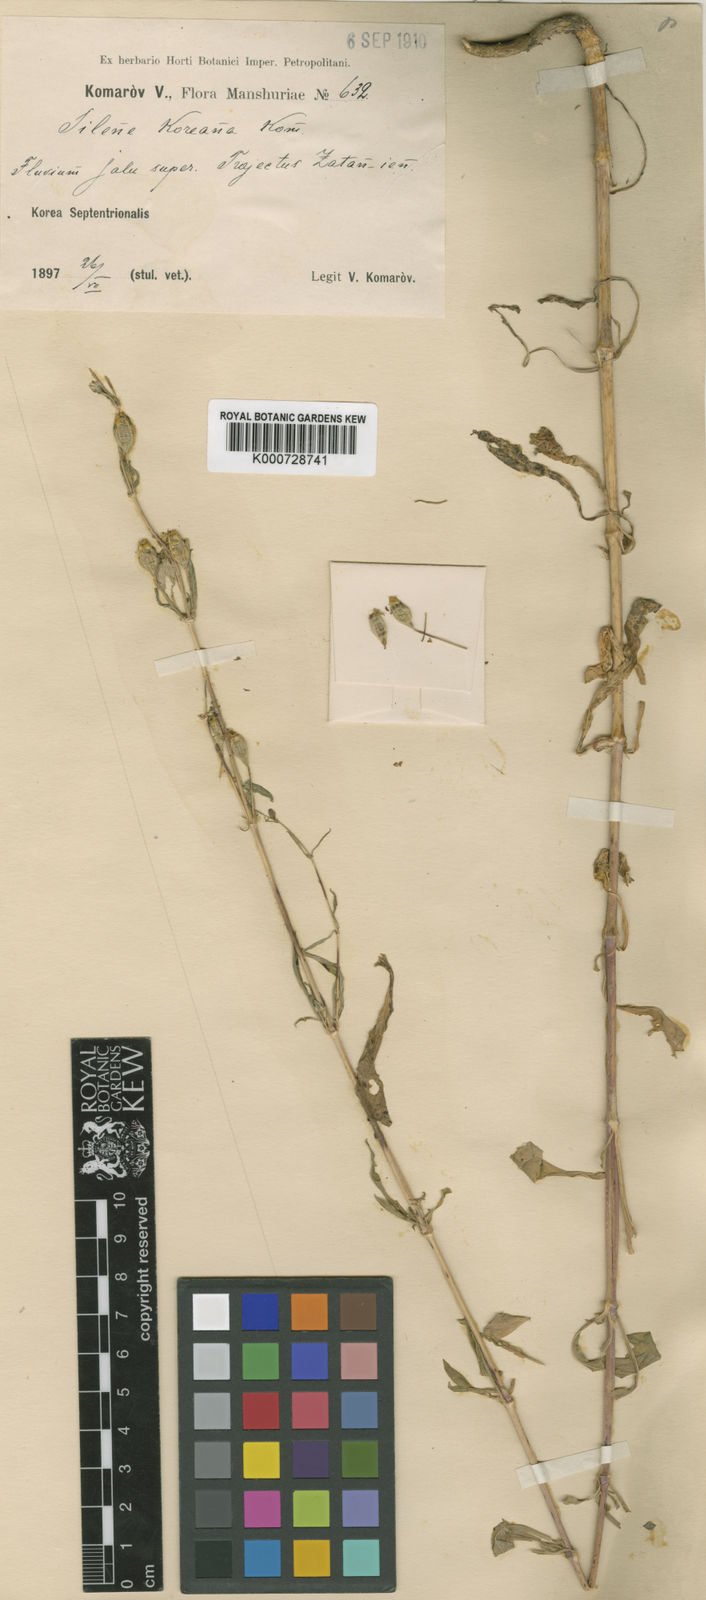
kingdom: Plantae
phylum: Tracheophyta
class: Magnoliopsida
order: Caryophyllales
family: Caryophyllaceae
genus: Silene
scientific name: Silene koreana
